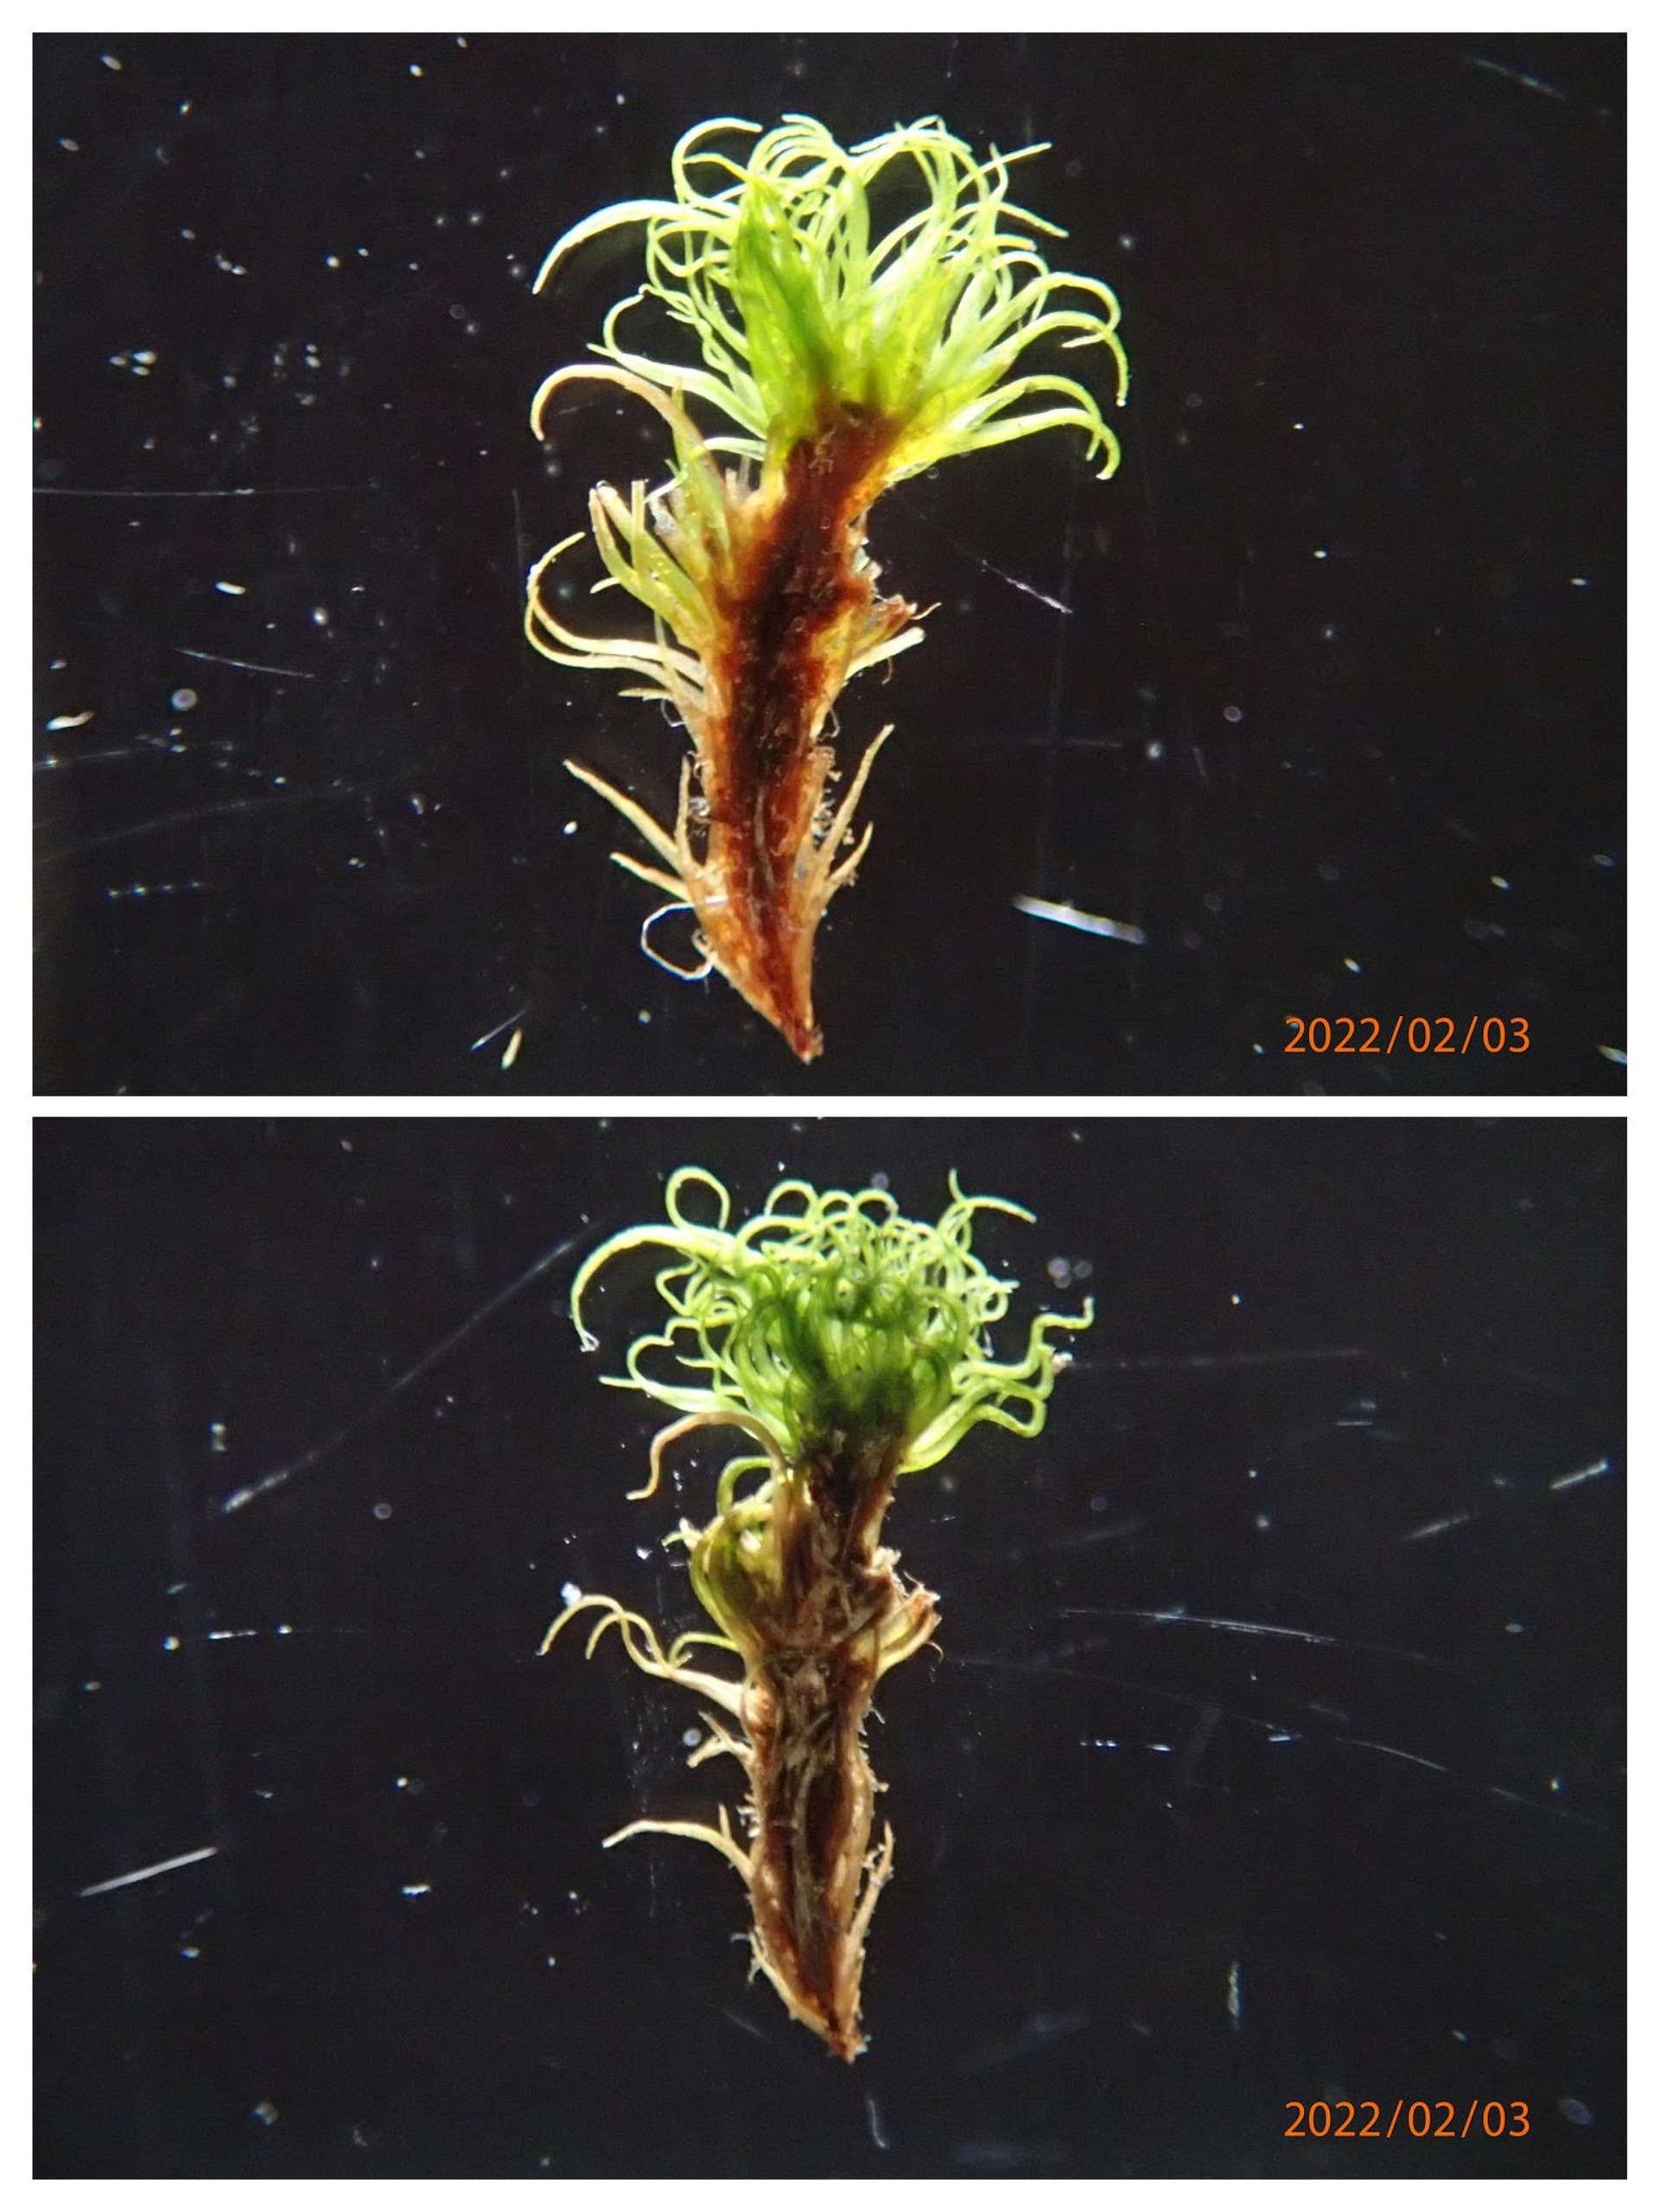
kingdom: Plantae
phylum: Bryophyta
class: Bryopsida
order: Dicranales
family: Dicranaceae
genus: Orthodicranum
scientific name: Orthodicranum montanum
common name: Tæt tyndvinge
